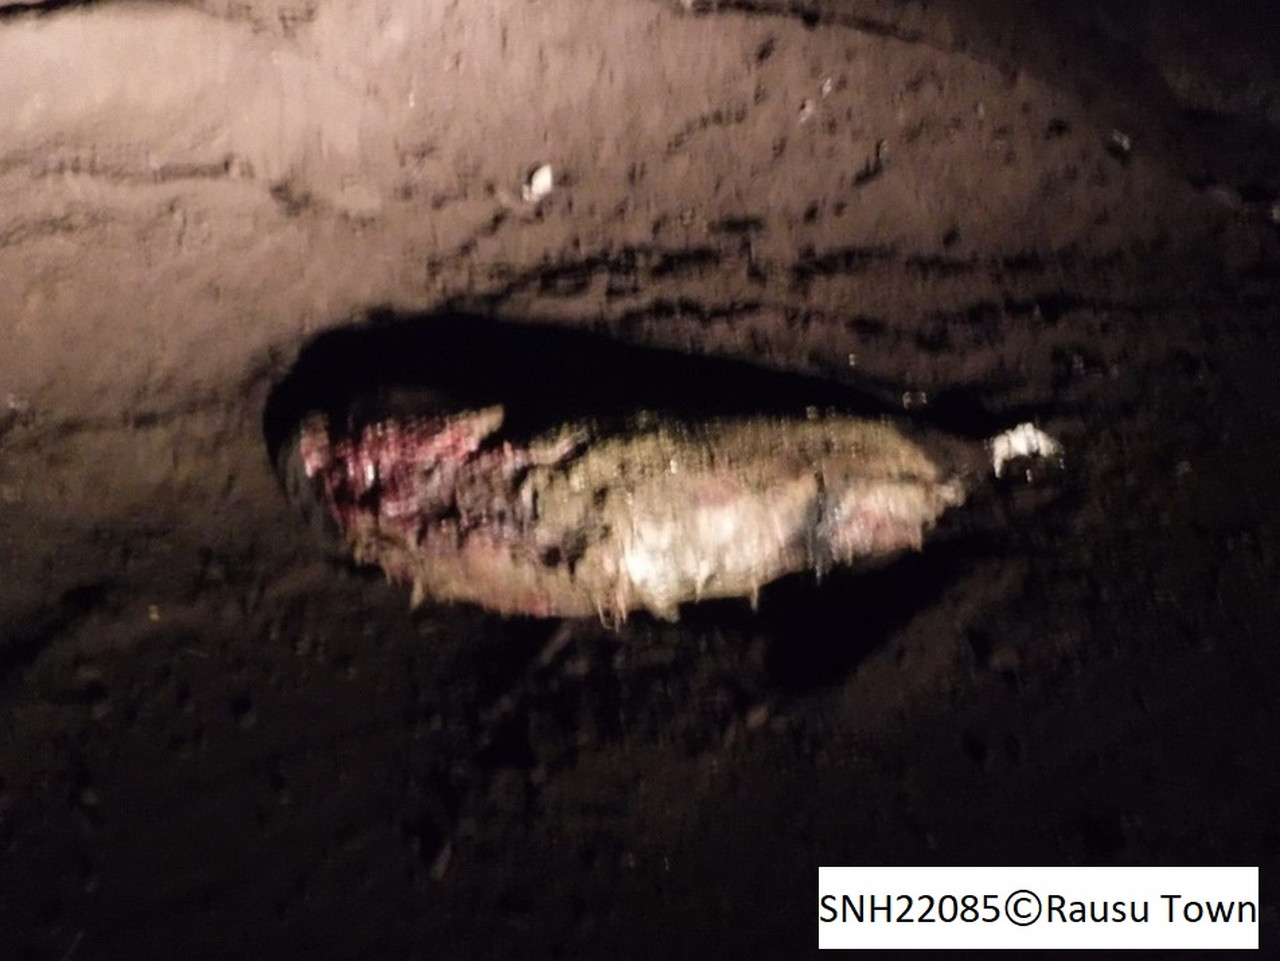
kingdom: Animalia
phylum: Chordata
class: Mammalia
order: Cetacea
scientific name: Cetacea
